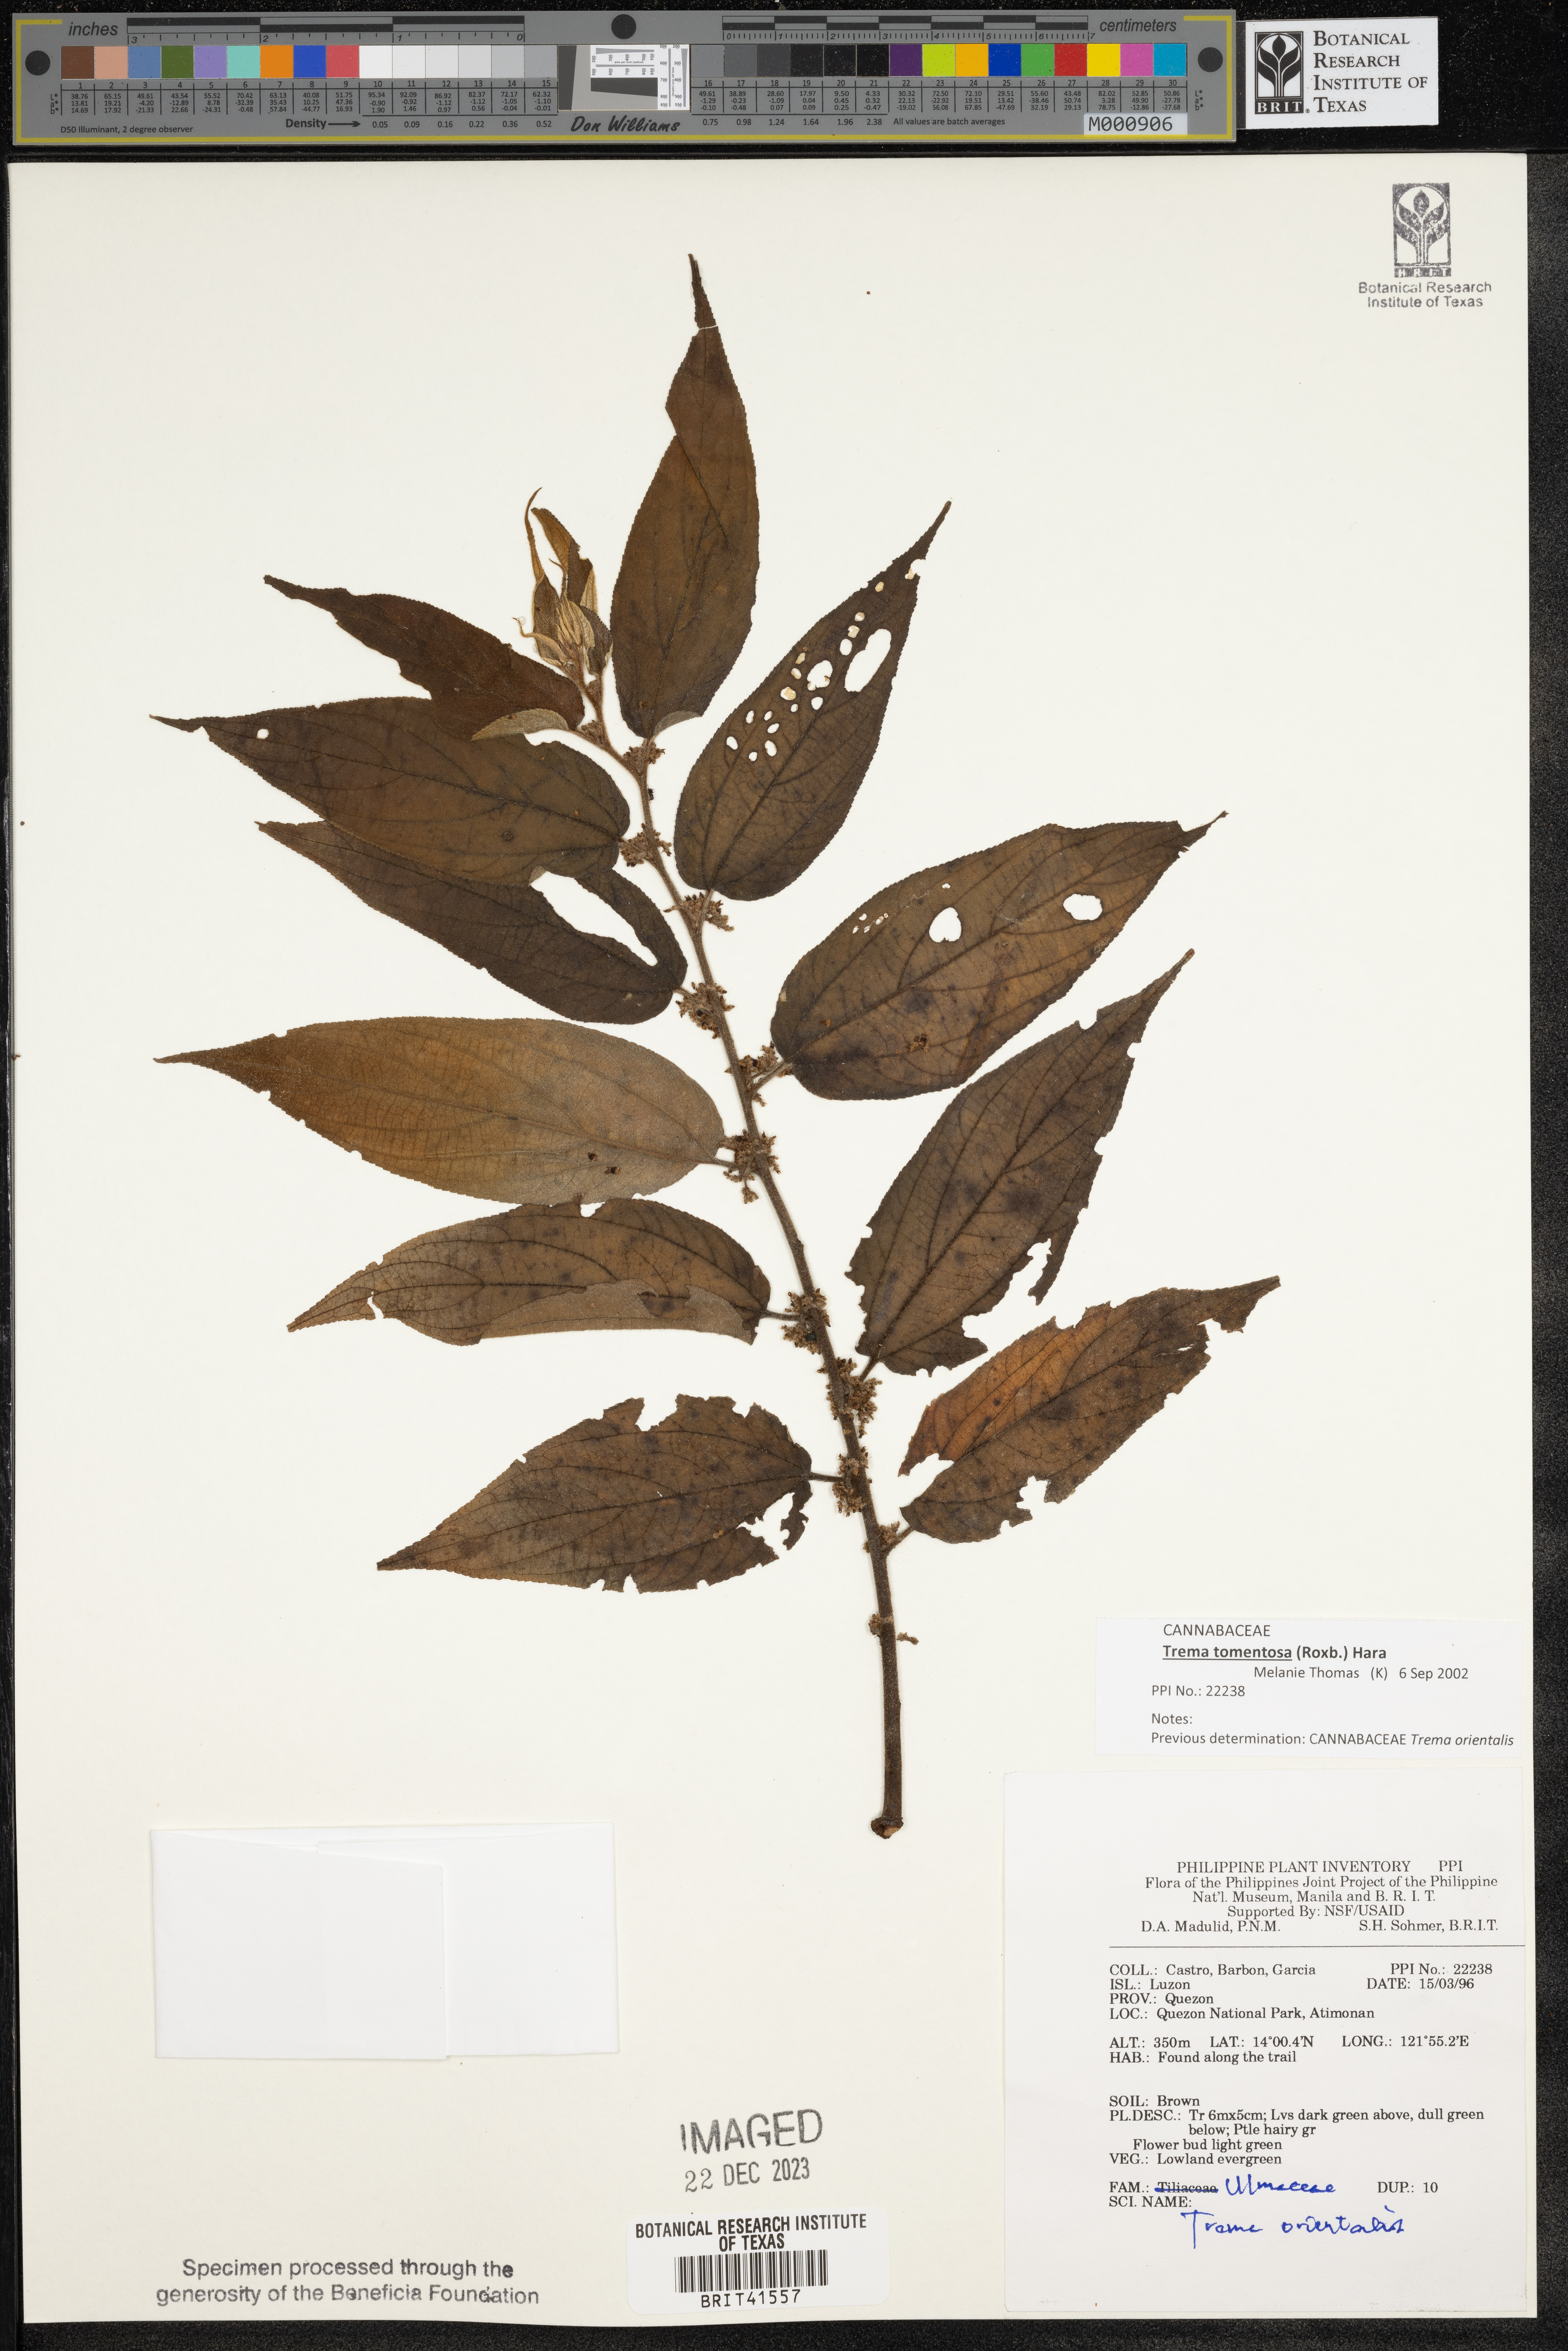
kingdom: Plantae
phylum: Tracheophyta
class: Magnoliopsida
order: Rosales
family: Cannabaceae
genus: Trema
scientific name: Trema orientale
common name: Indian charcoal tree
